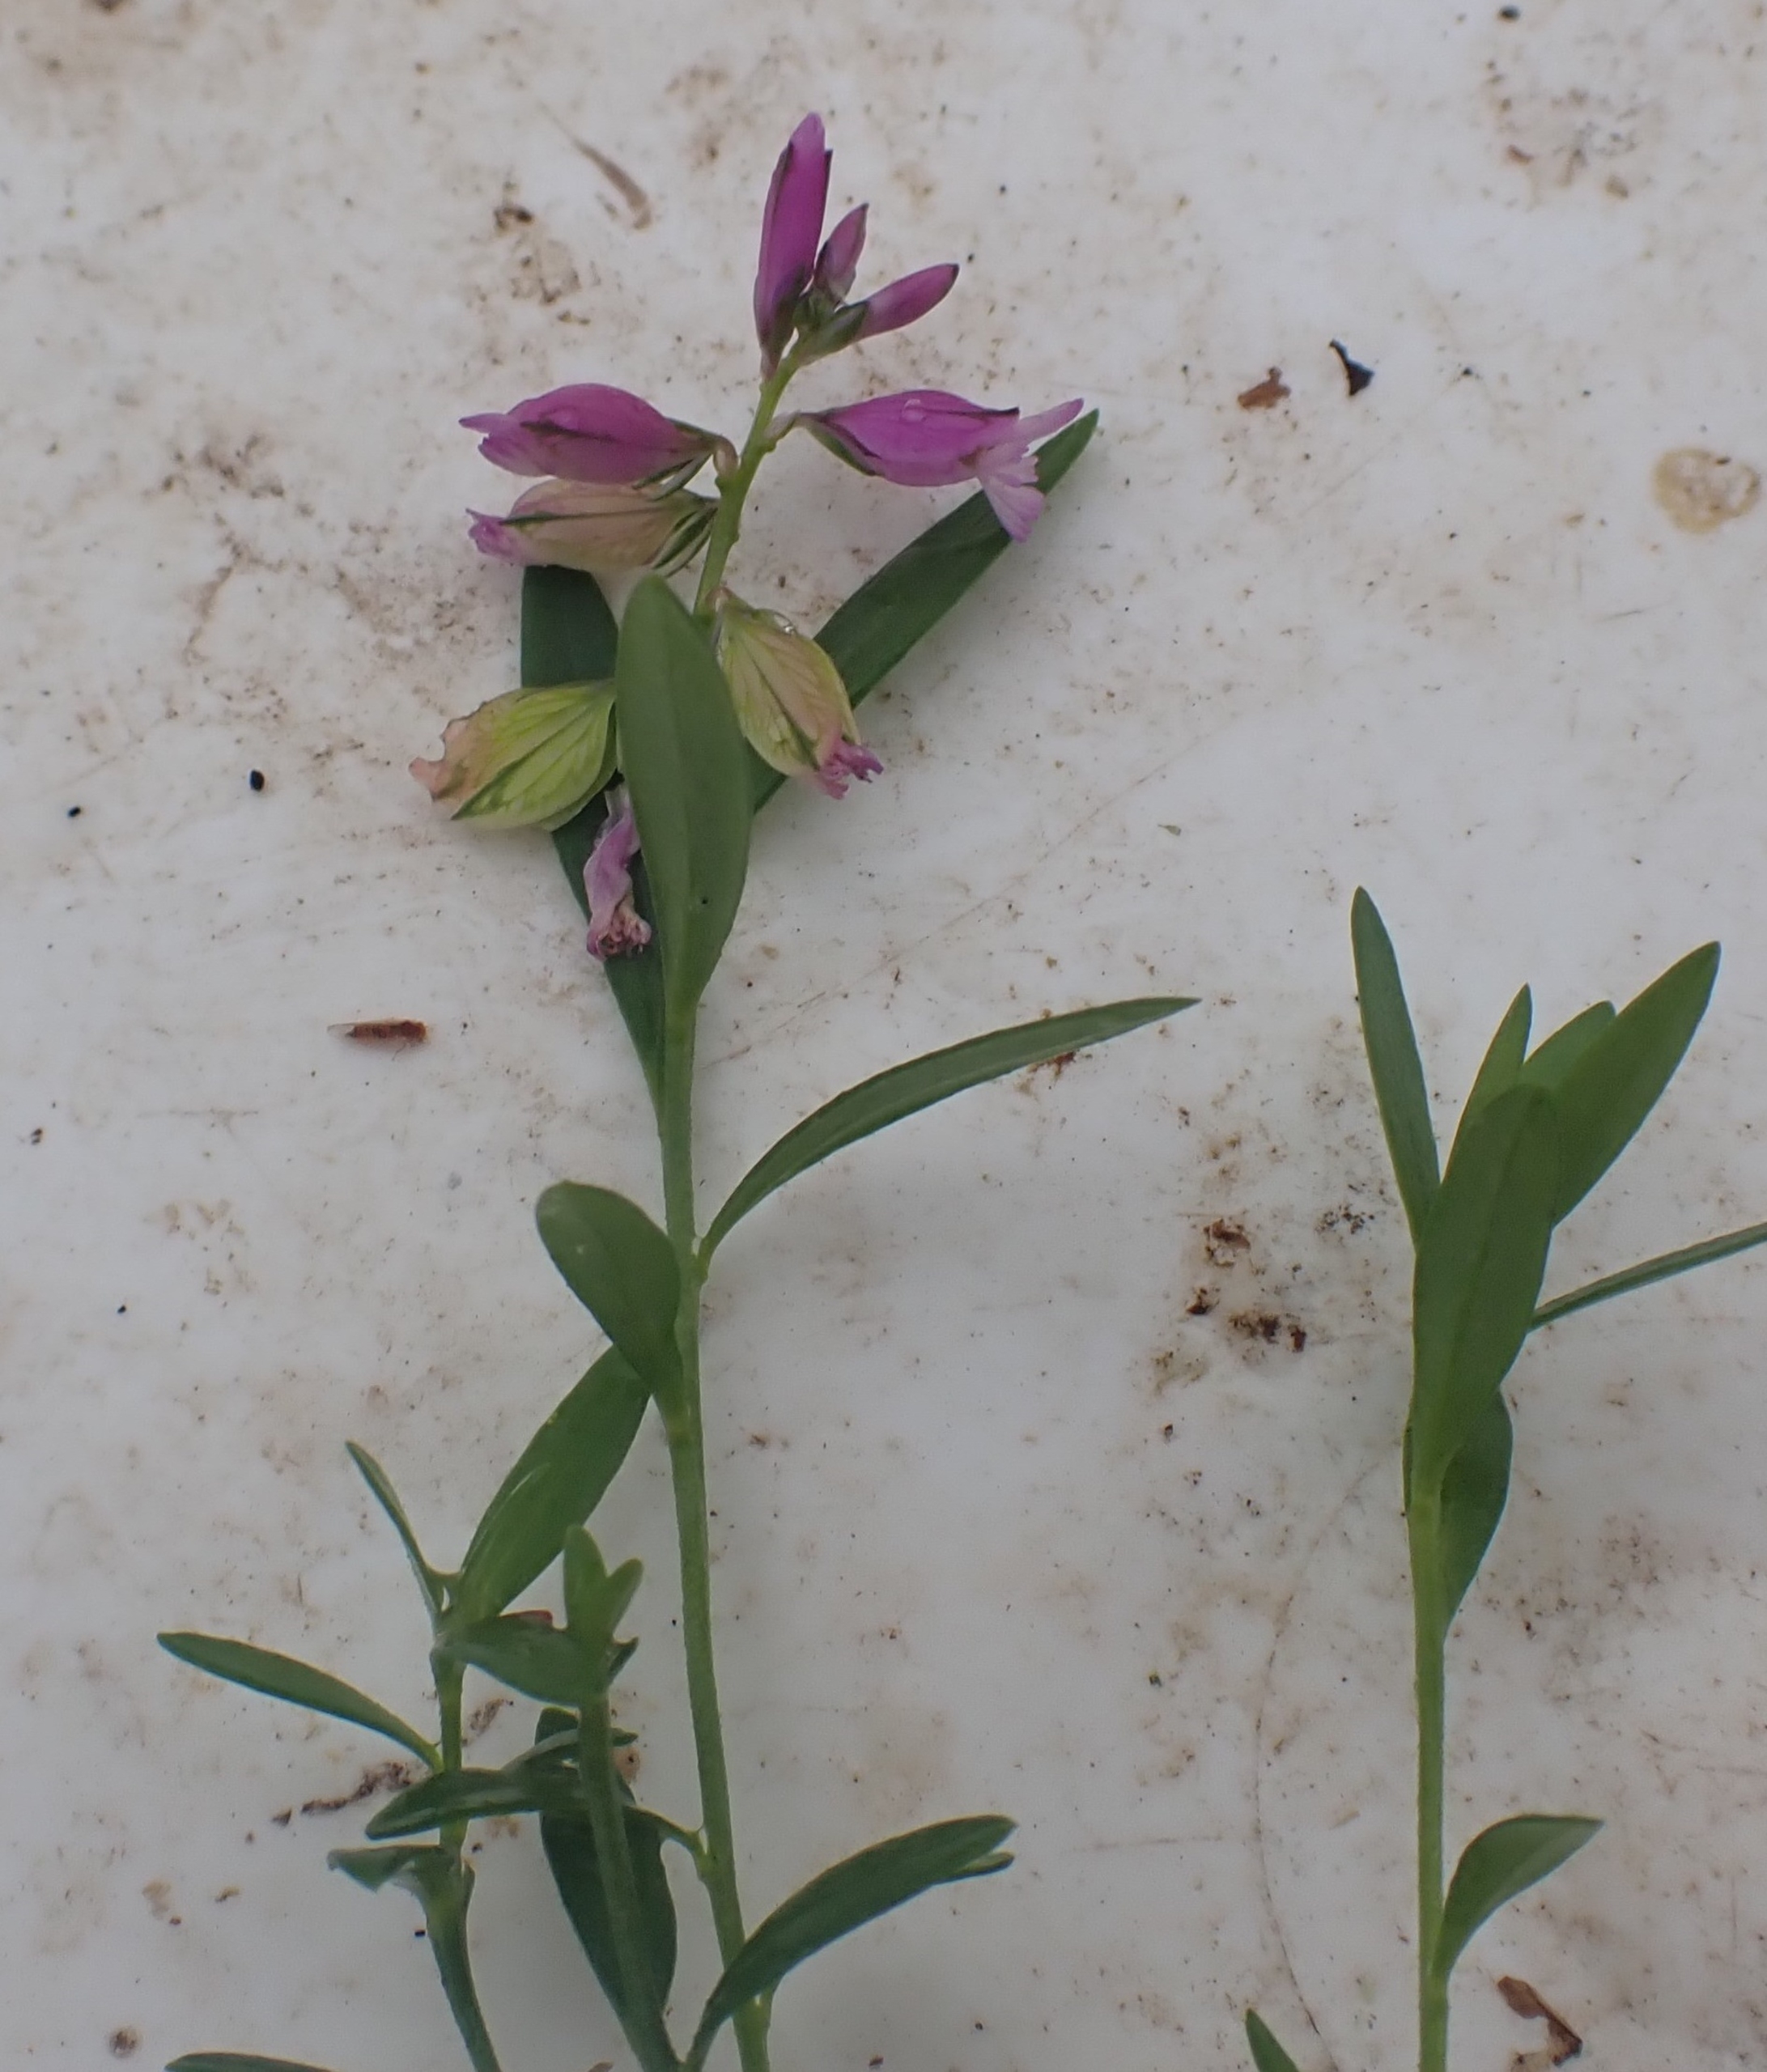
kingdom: Plantae
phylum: Tracheophyta
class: Magnoliopsida
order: Fabales
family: Polygalaceae
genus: Polygala
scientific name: Polygala vulgaris
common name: Almindelig mælkeurt
